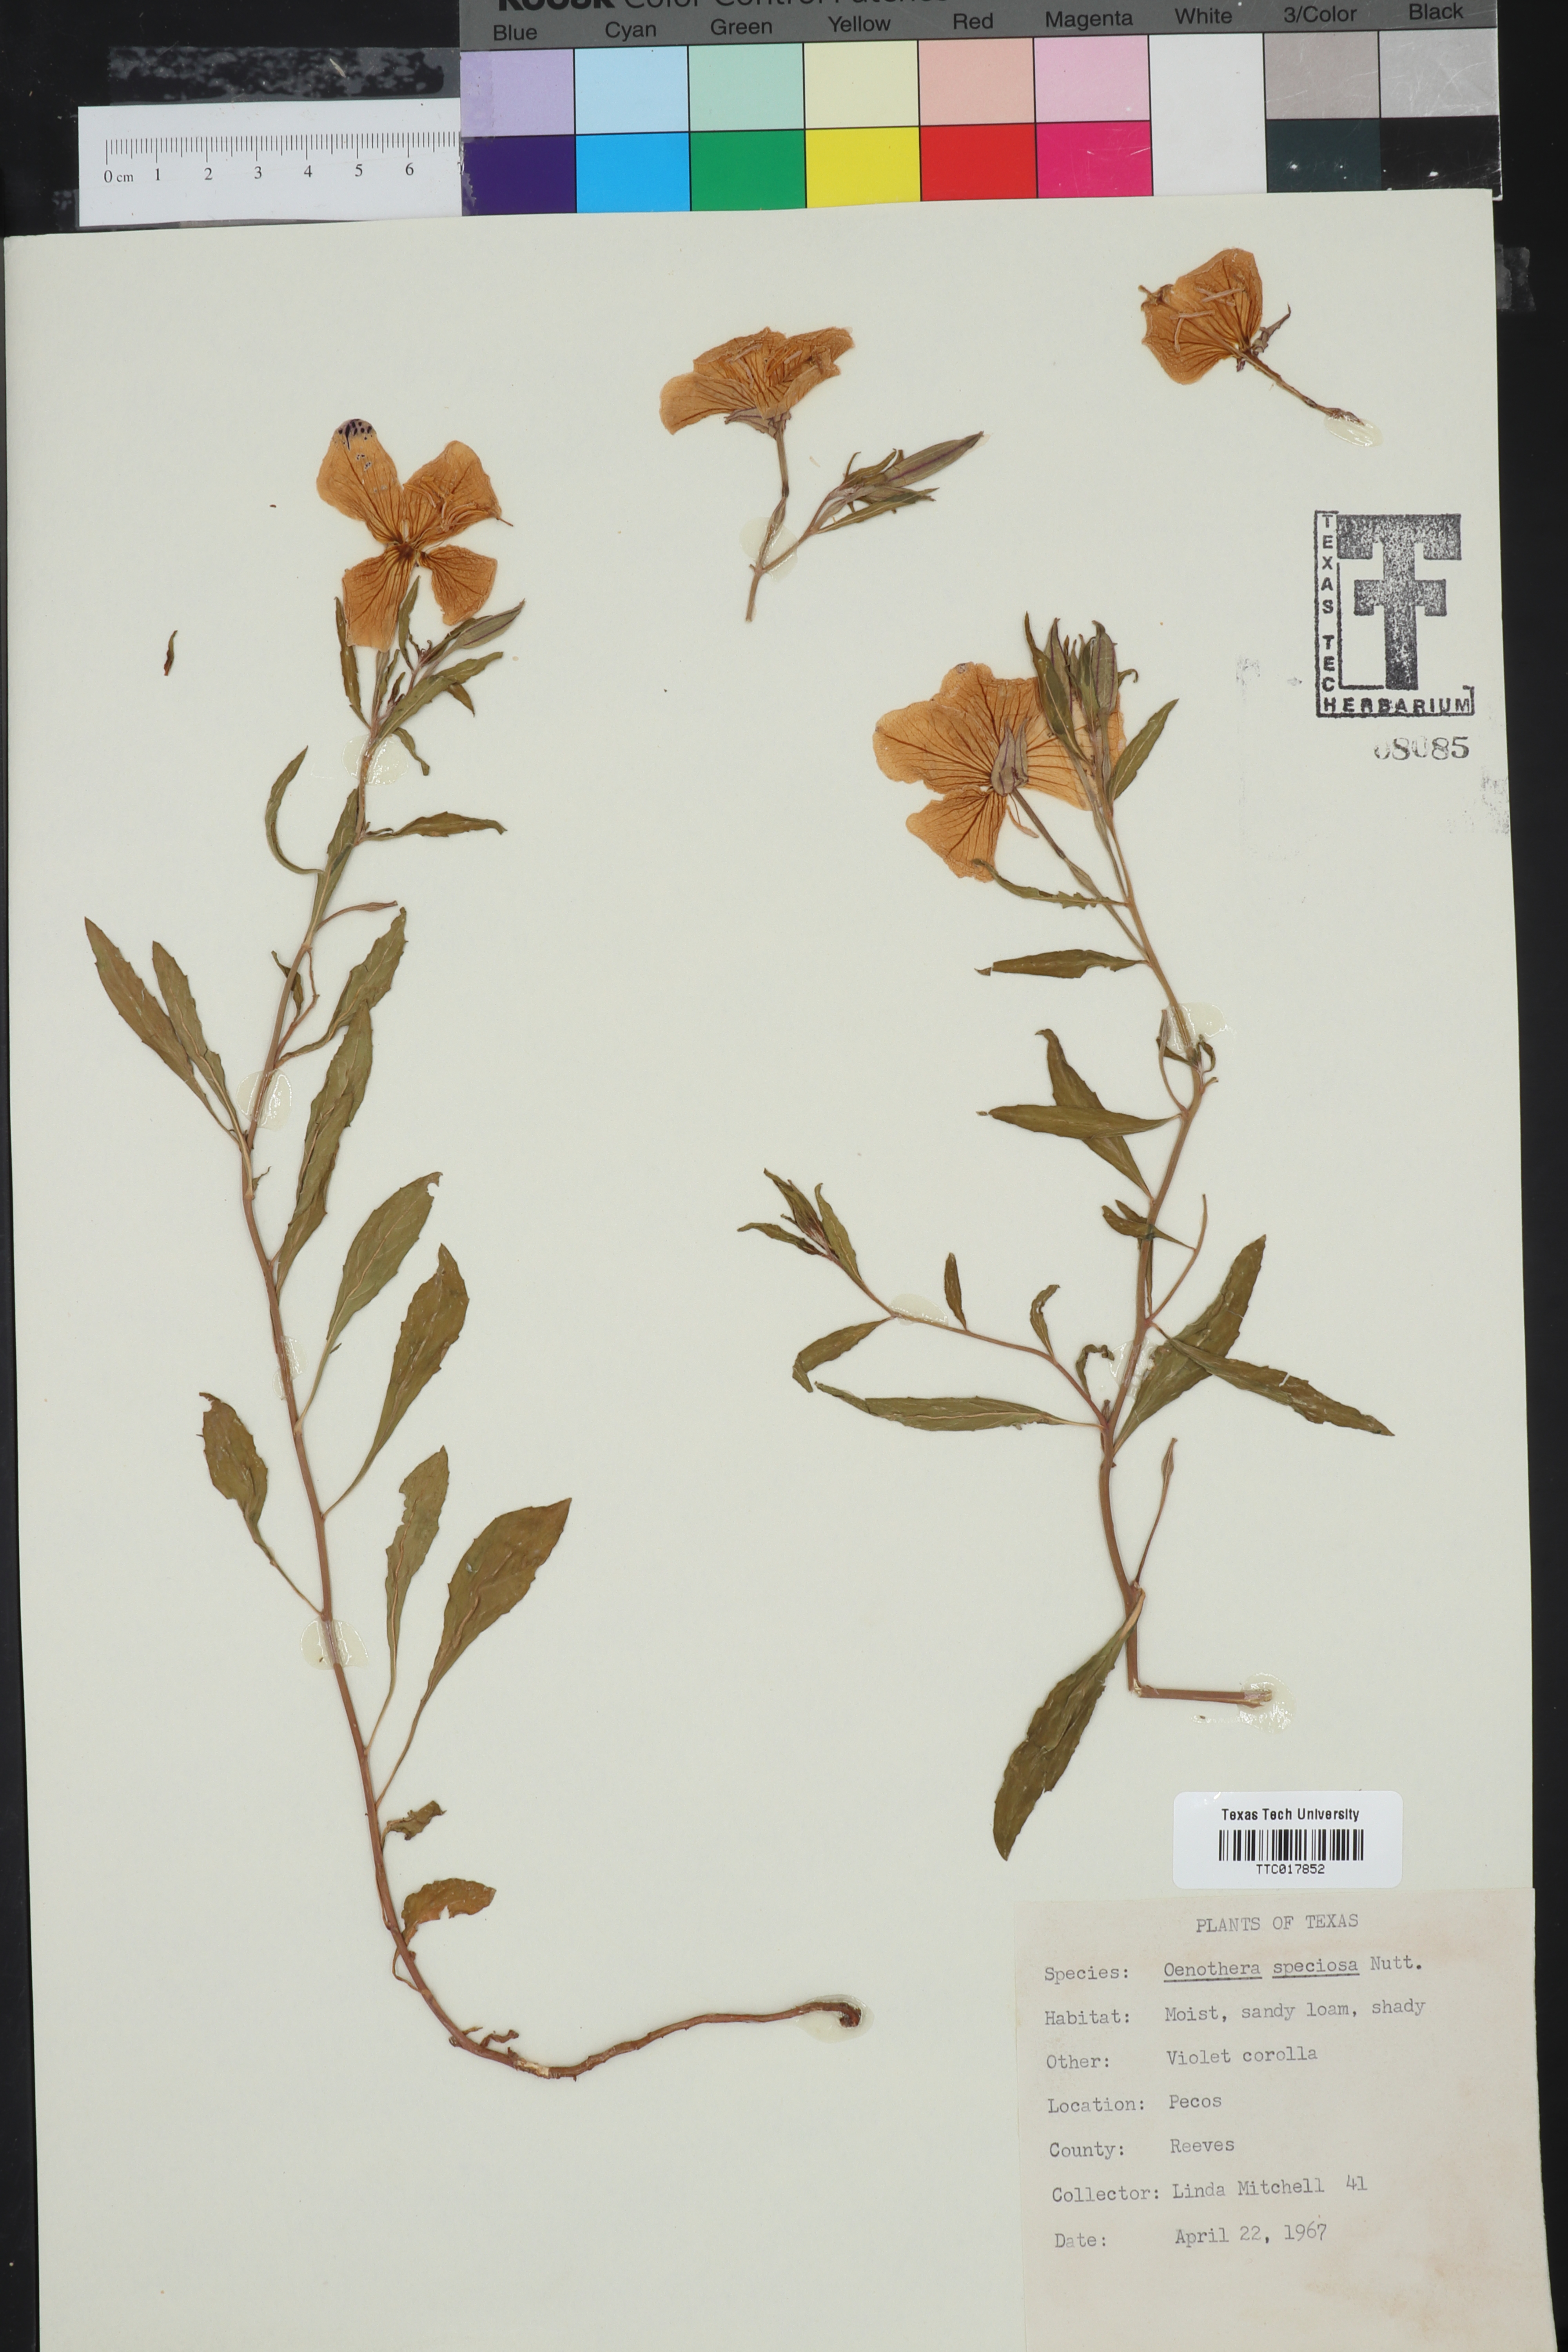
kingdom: Plantae
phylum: Tracheophyta
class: Magnoliopsida
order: Myrtales
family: Onagraceae
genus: Oenothera
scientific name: Oenothera speciosa
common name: White evening-primrose
